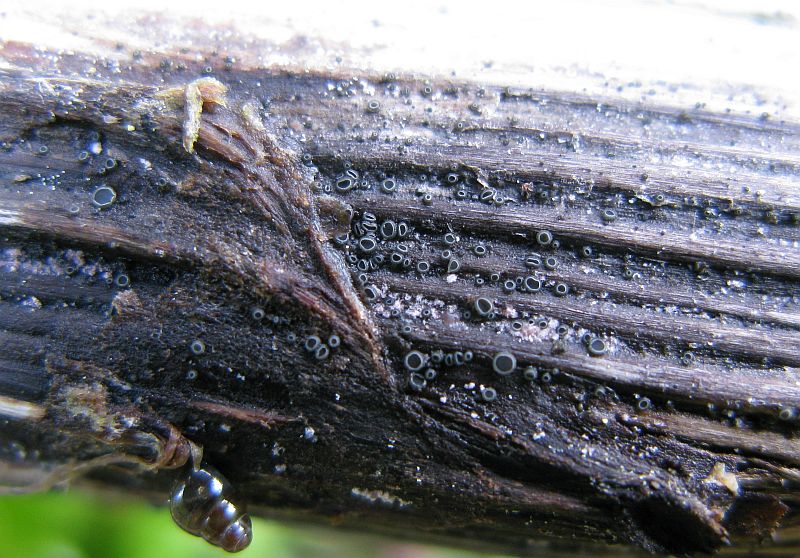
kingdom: Fungi
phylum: Ascomycota
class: Leotiomycetes
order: Helotiales
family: Ploettnerulaceae
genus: Pyrenopeziza
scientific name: Pyrenopeziza arctii
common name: burre-kerneskive
